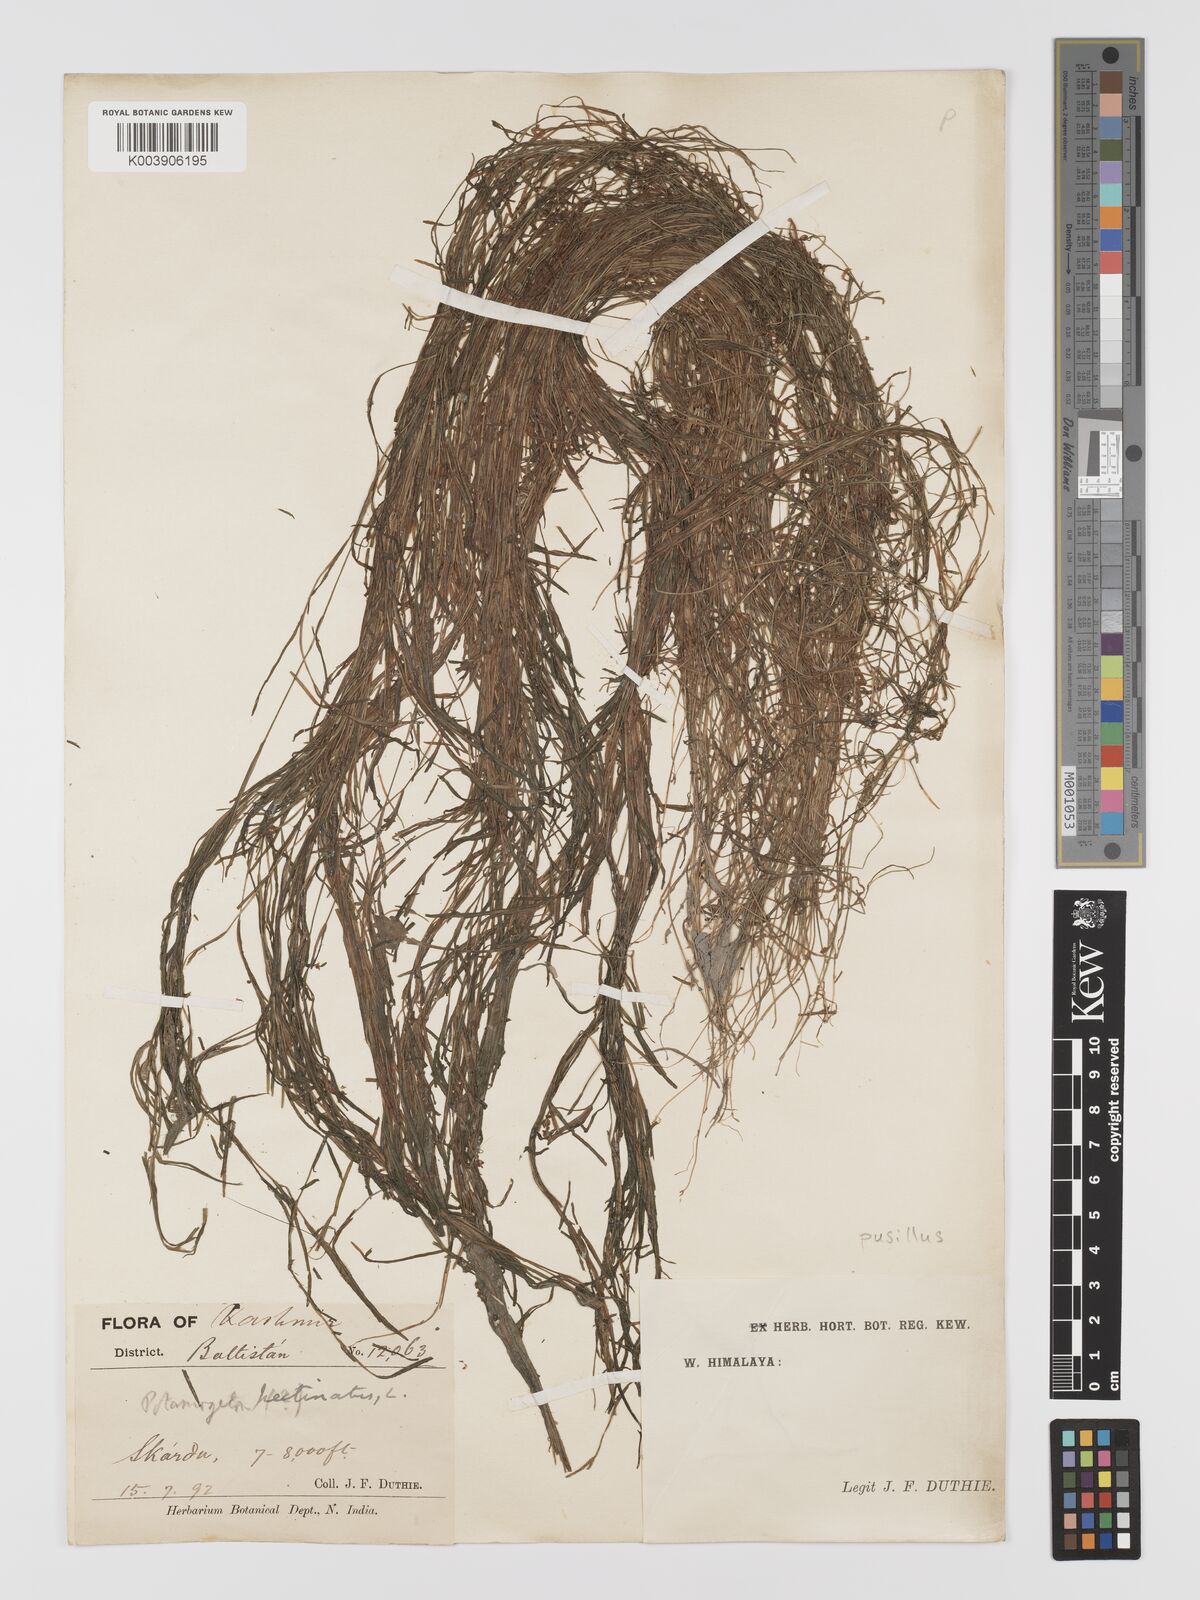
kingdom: Plantae
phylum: Tracheophyta
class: Liliopsida
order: Alismatales
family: Potamogetonaceae
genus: Potamogeton
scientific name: Potamogeton pusillus
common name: Lesser pondweed
